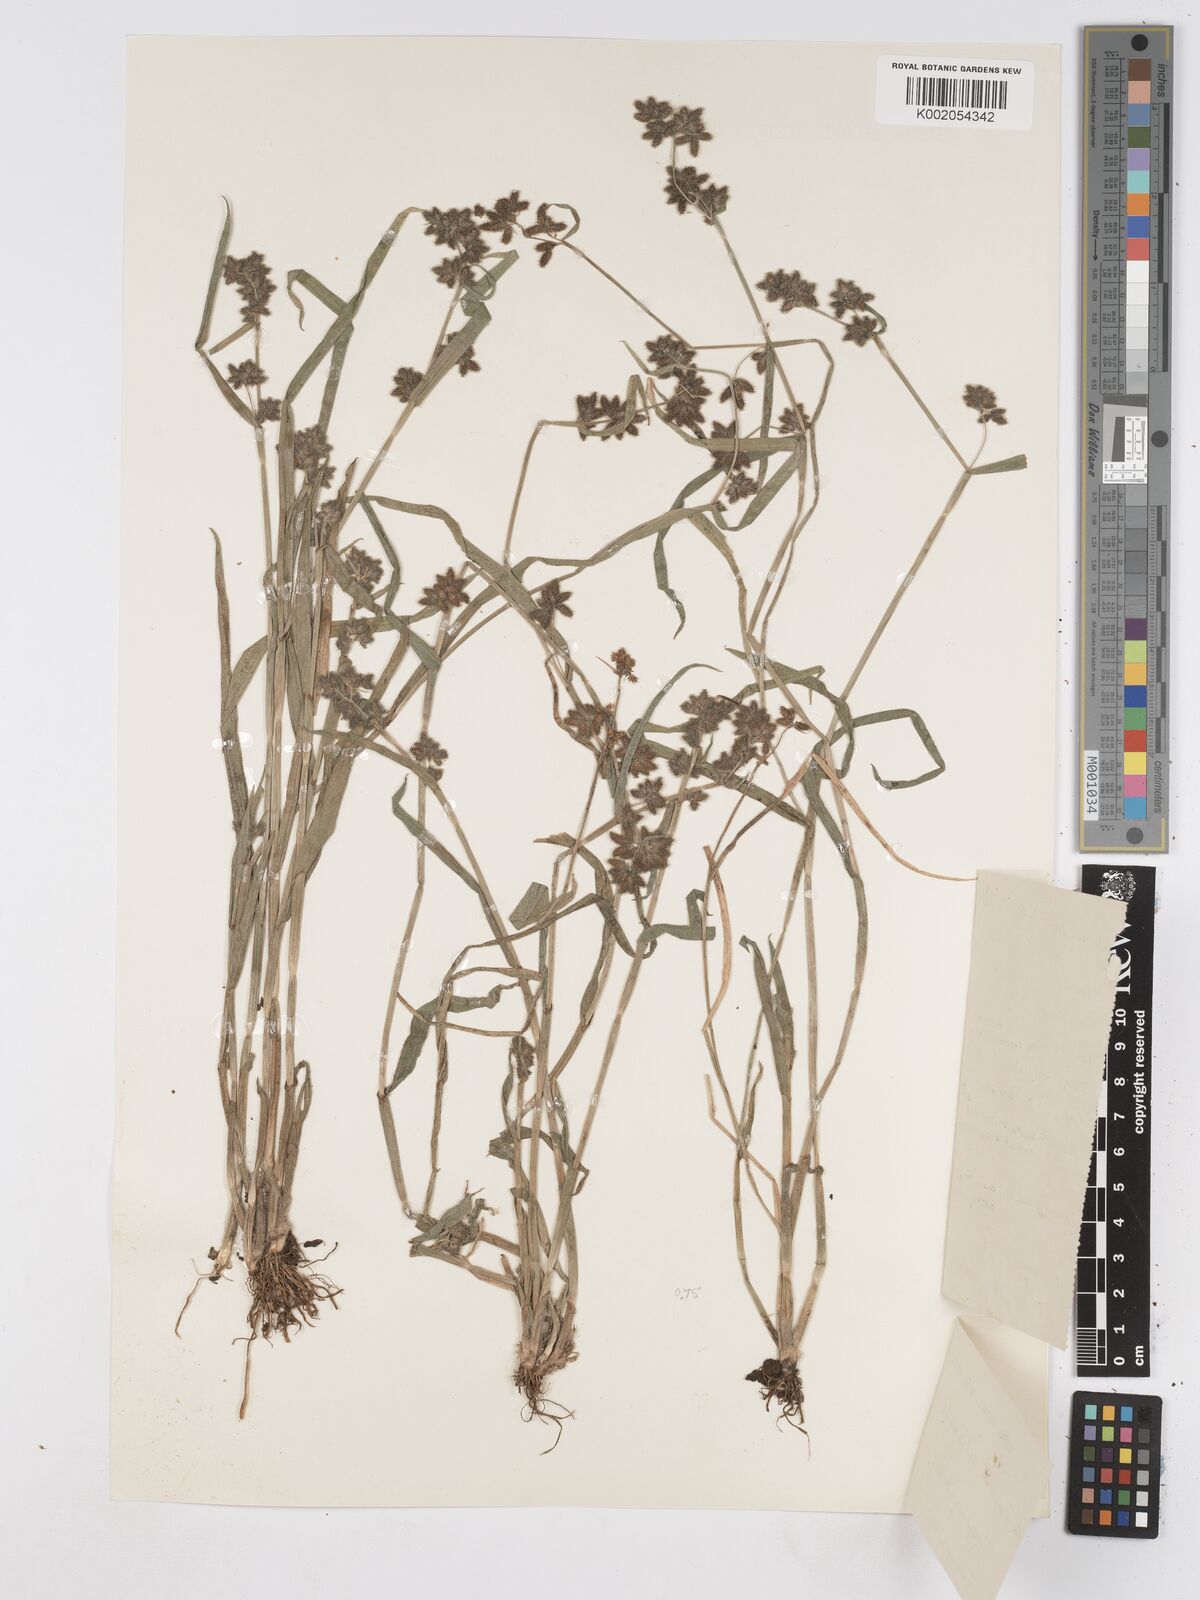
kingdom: Plantae
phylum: Tracheophyta
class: Liliopsida
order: Poales
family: Cyperaceae
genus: Fuirena
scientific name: Fuirena ciliaris
